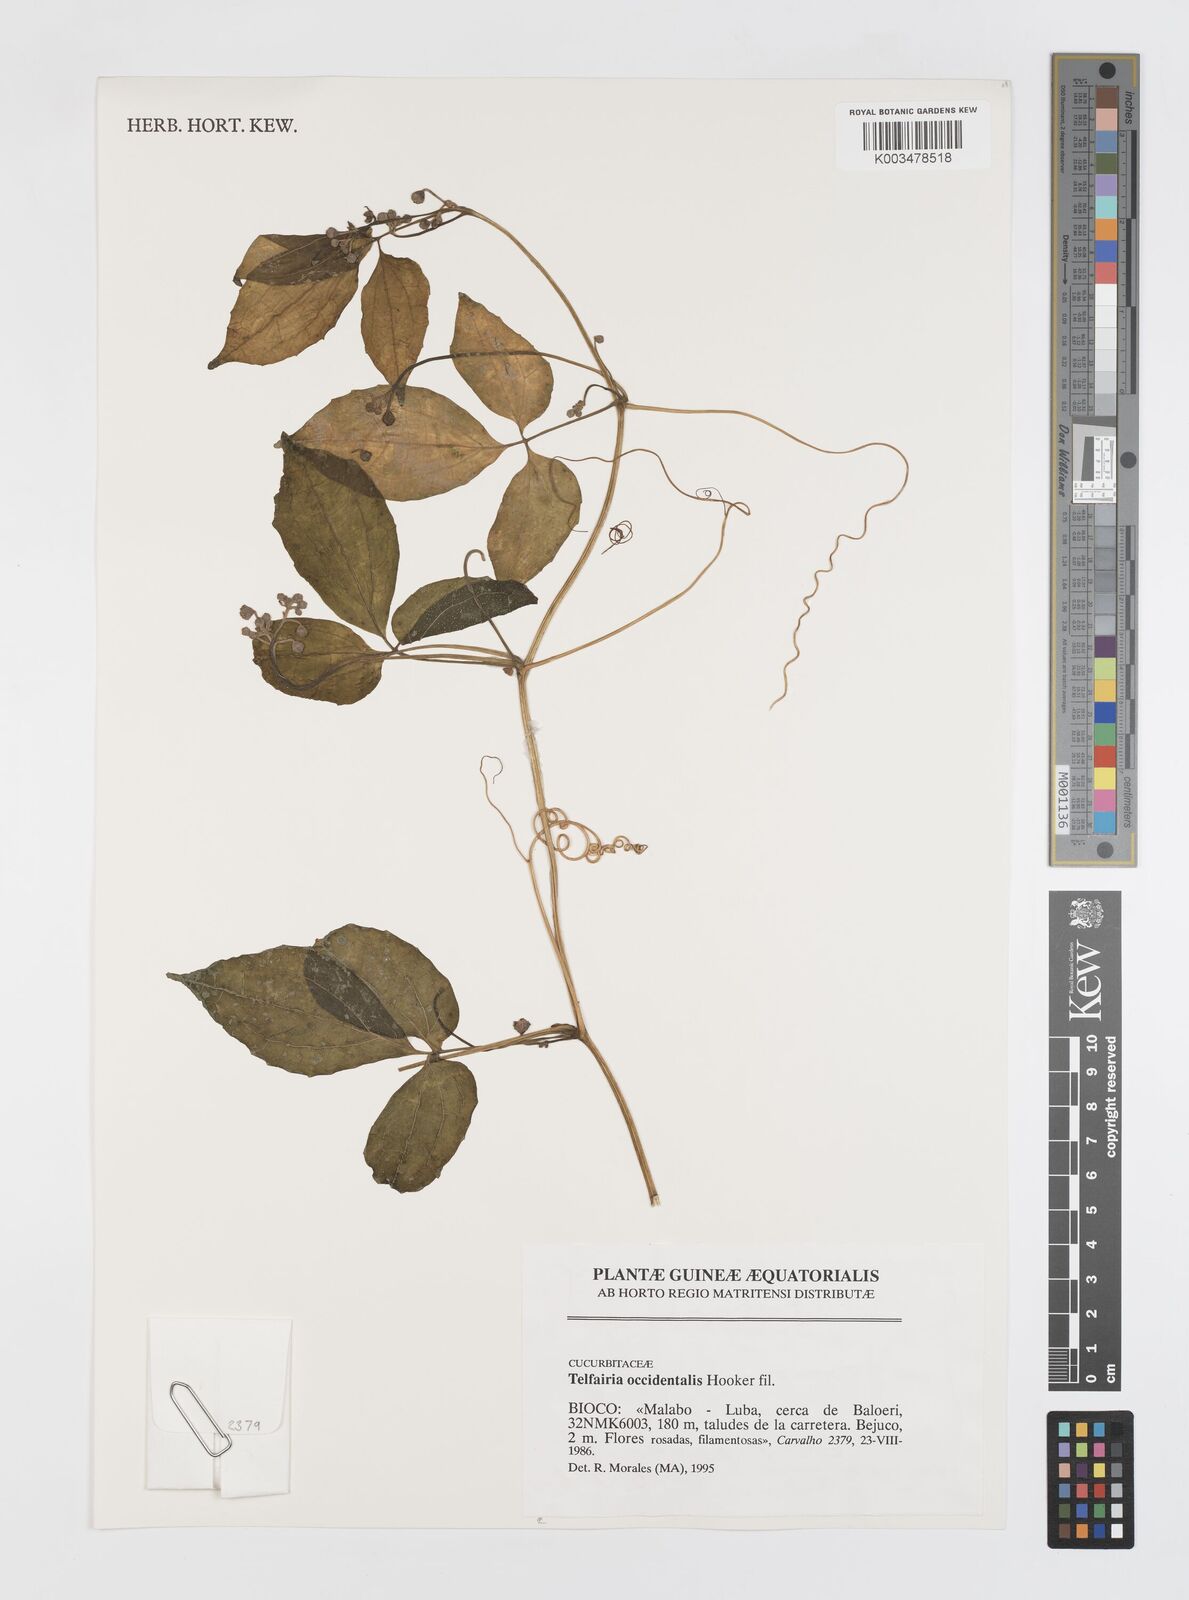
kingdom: Plantae
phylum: Tracheophyta
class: Magnoliopsida
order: Cucurbitales
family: Cucurbitaceae
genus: Telfairia
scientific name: Telfairia occidentalis
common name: Oysternut
